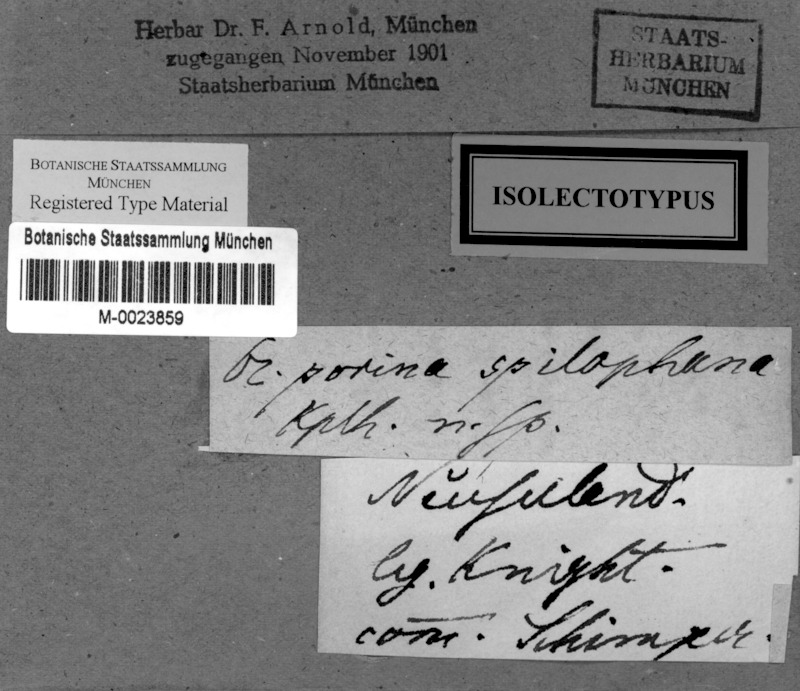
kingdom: Fungi
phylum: Ascomycota
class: Lecanoromycetes
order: Pertusariales
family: Pertusariaceae
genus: Segestria
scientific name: Segestria
